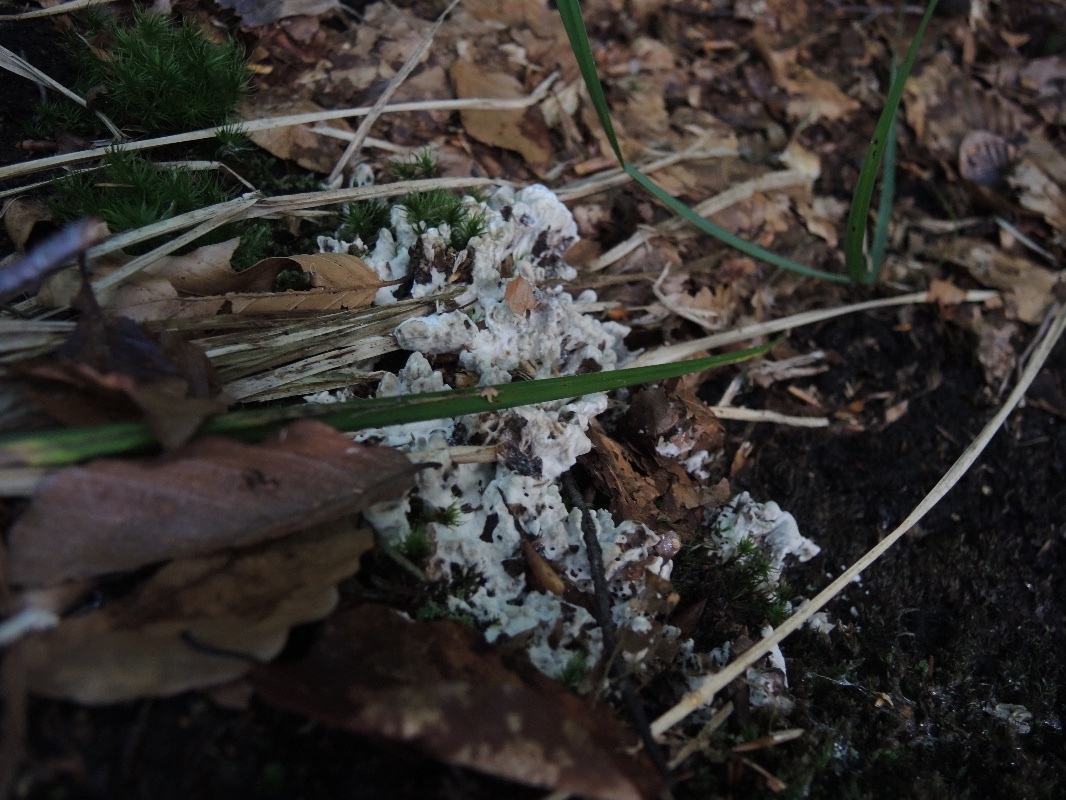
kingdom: Fungi
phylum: Basidiomycota
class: Agaricomycetes
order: Thelephorales
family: Thelephoraceae
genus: Phellodon
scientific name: Phellodon confluens
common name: pjaltet duftpigsvamp
